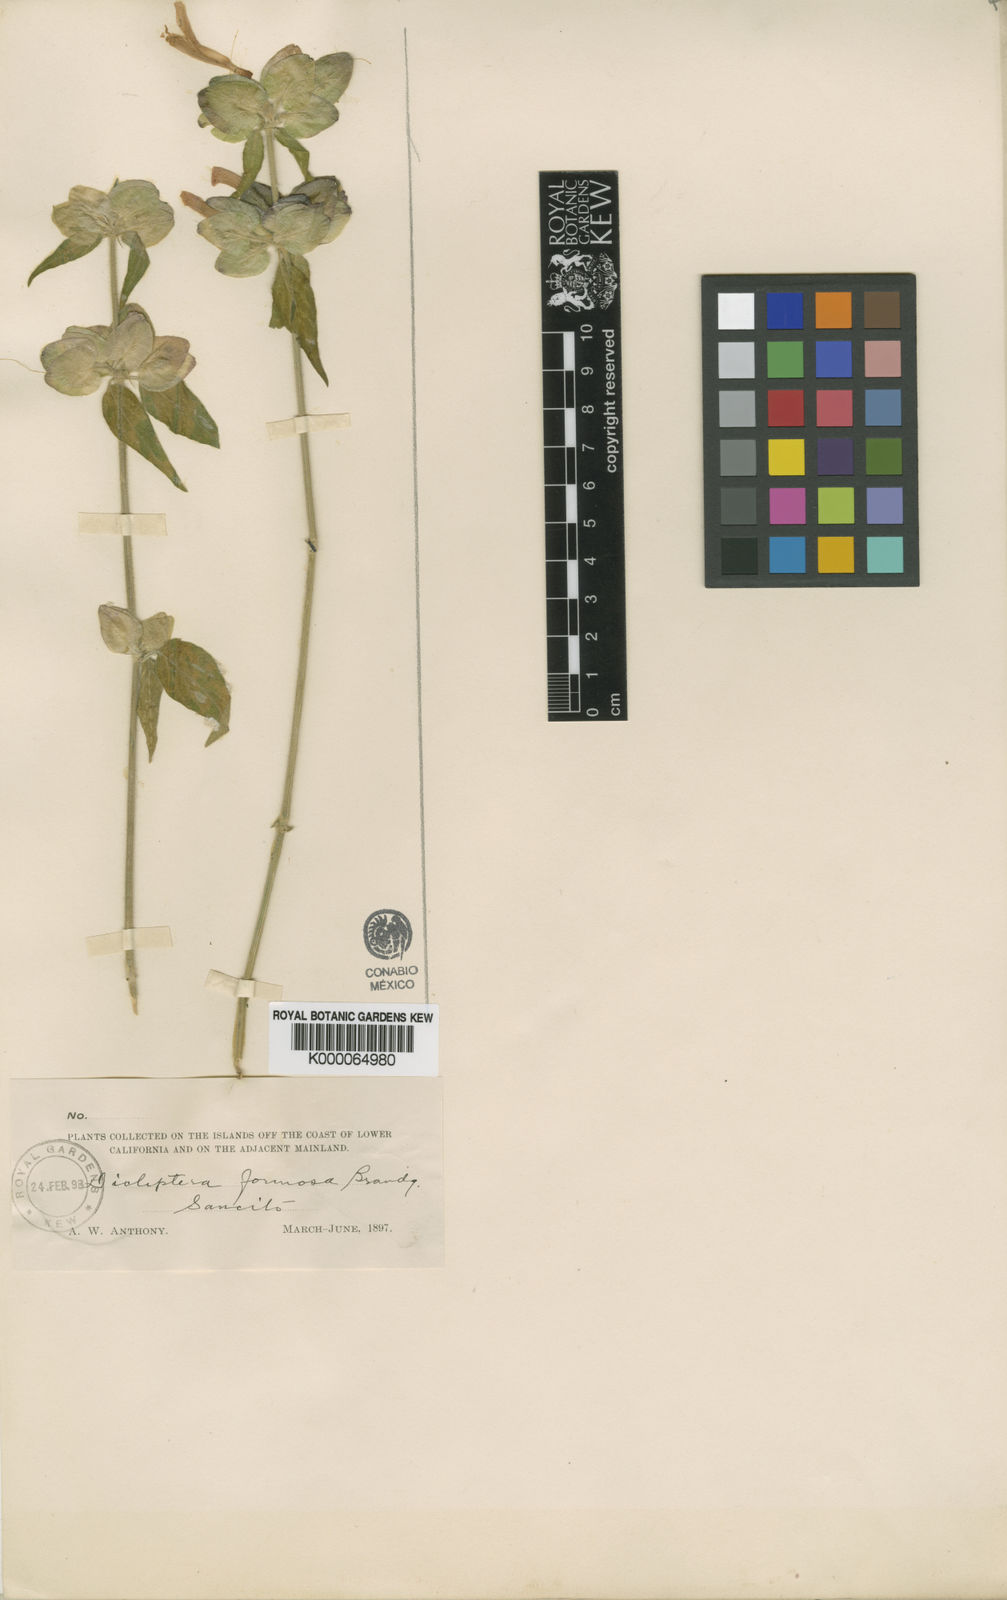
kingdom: Plantae
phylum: Tracheophyta
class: Magnoliopsida
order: Lamiales
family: Acanthaceae
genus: Dicliptera
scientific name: Dicliptera resupinata
